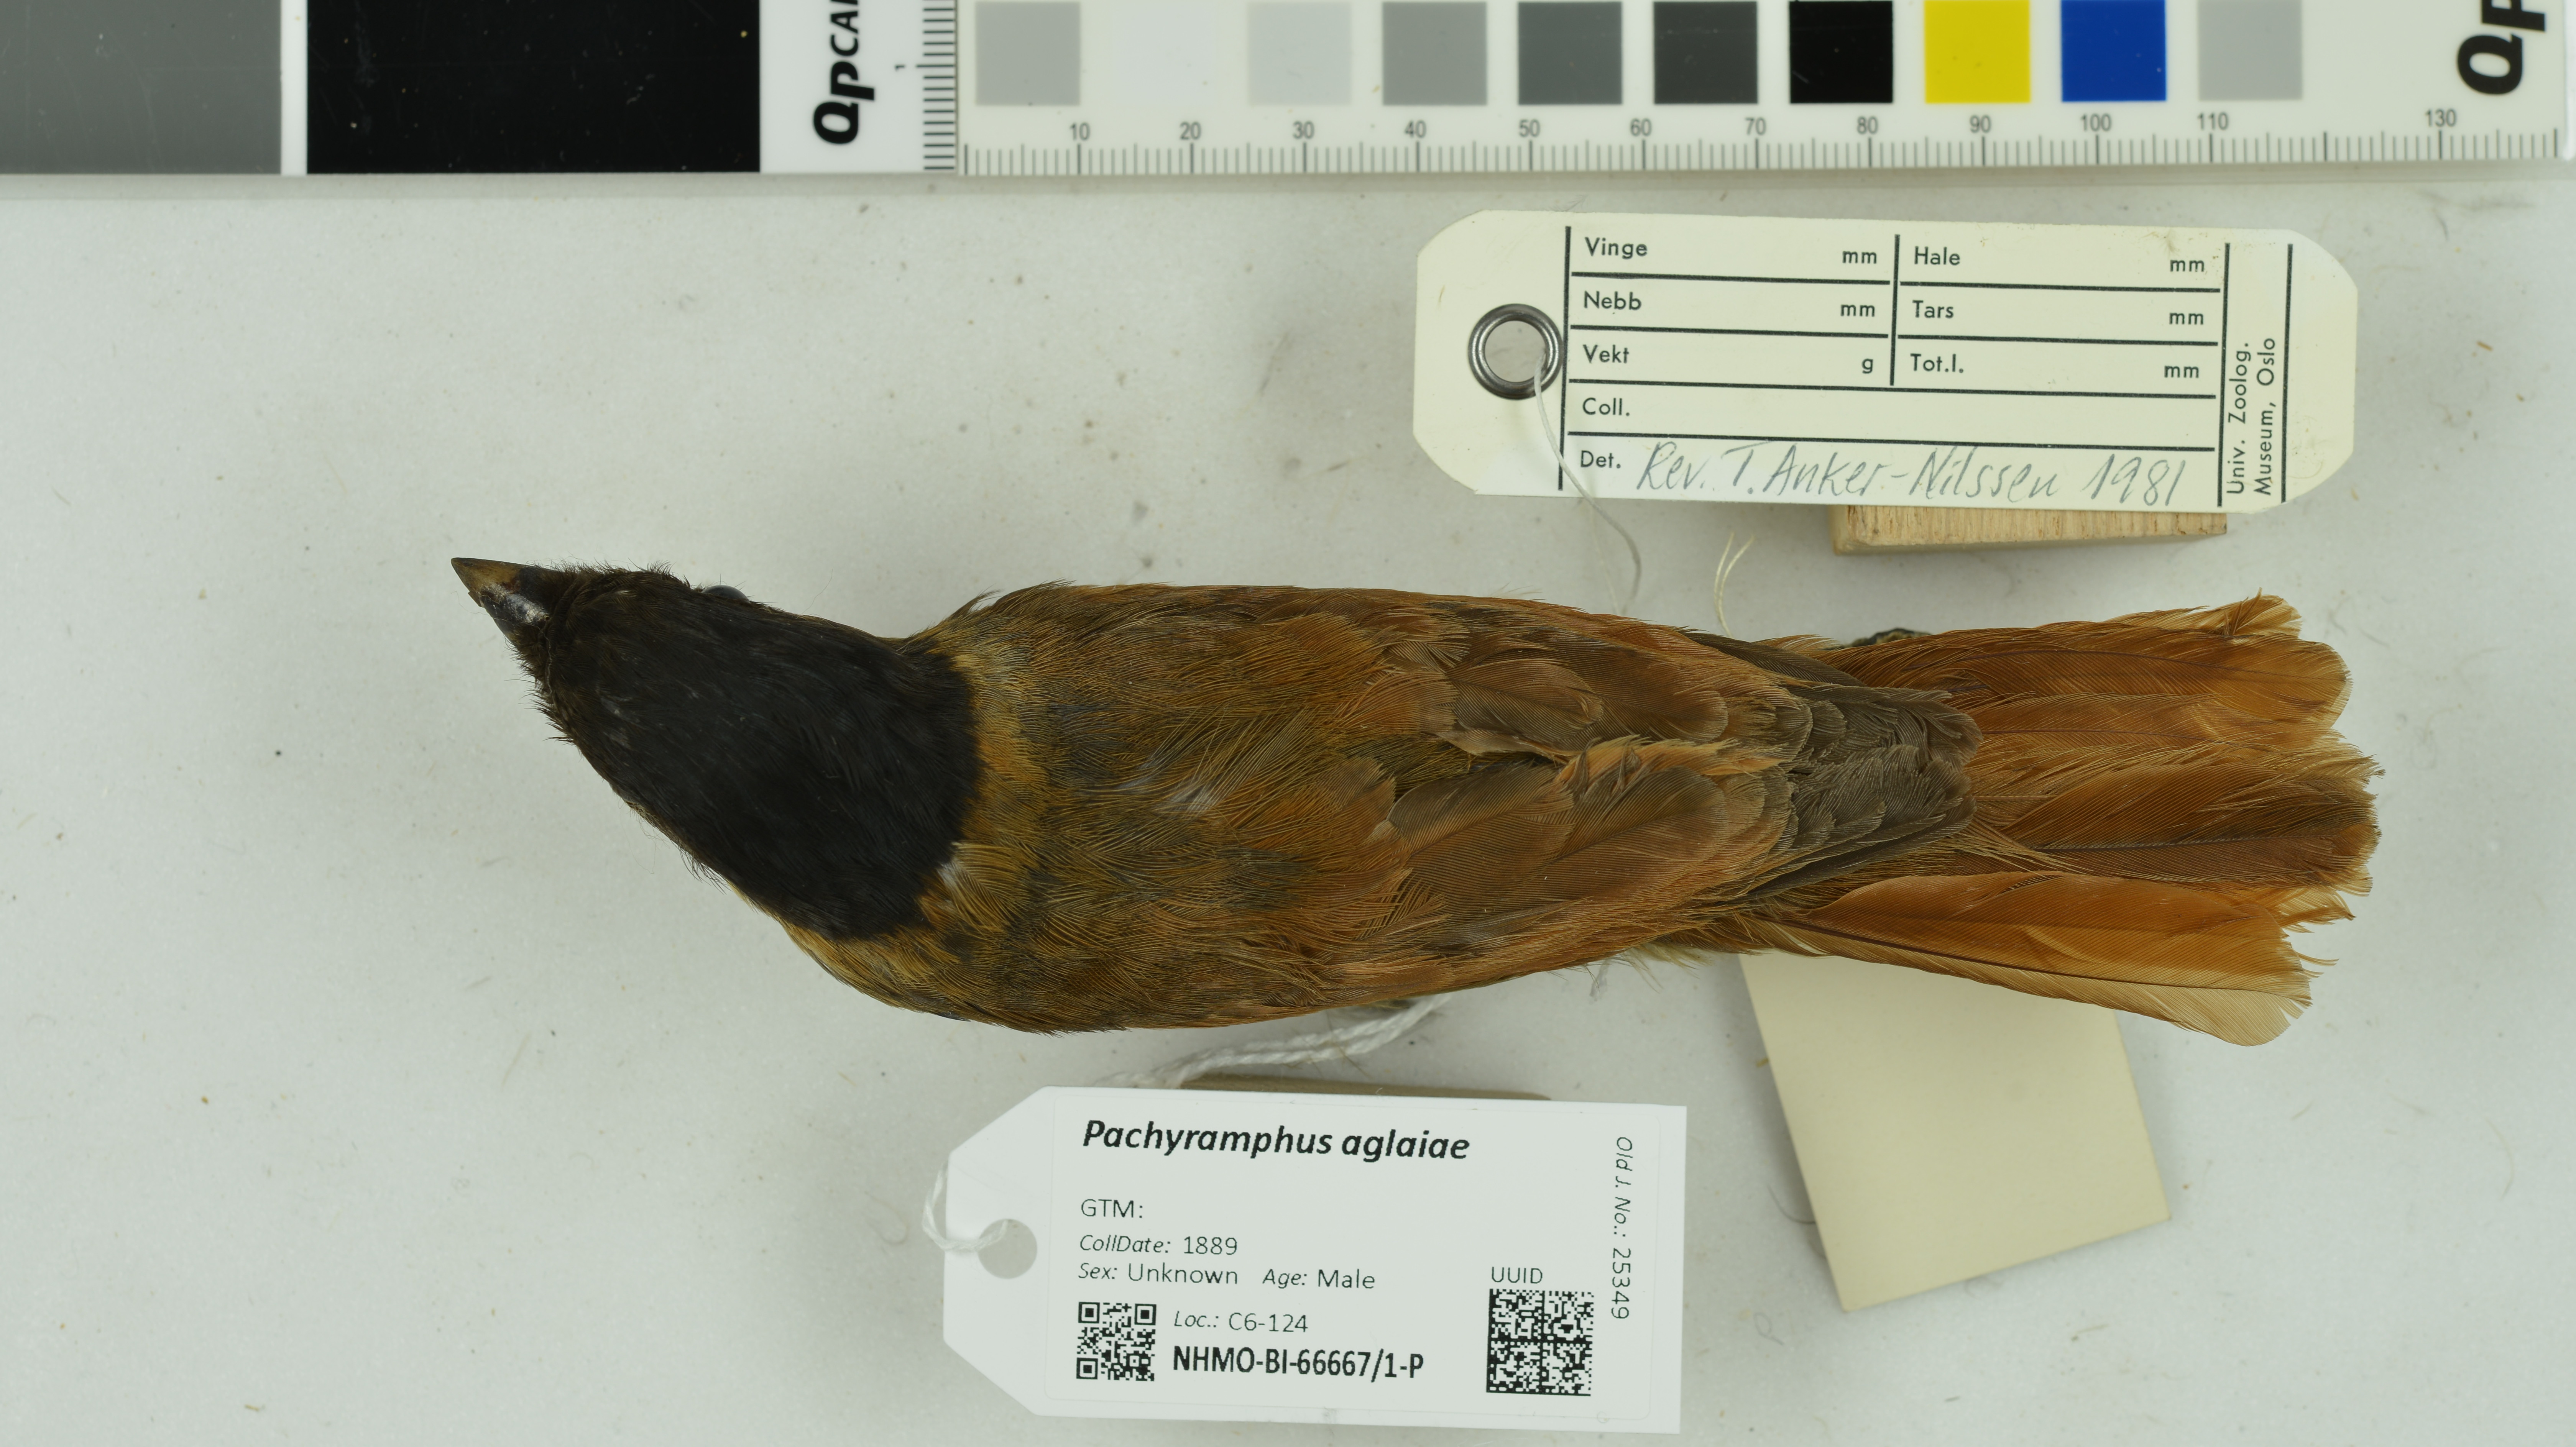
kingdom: Animalia
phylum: Chordata
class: Aves
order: Passeriformes
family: Cotingidae
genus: Pachyramphus
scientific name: Pachyramphus aglaiae
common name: Rose-throated becard
